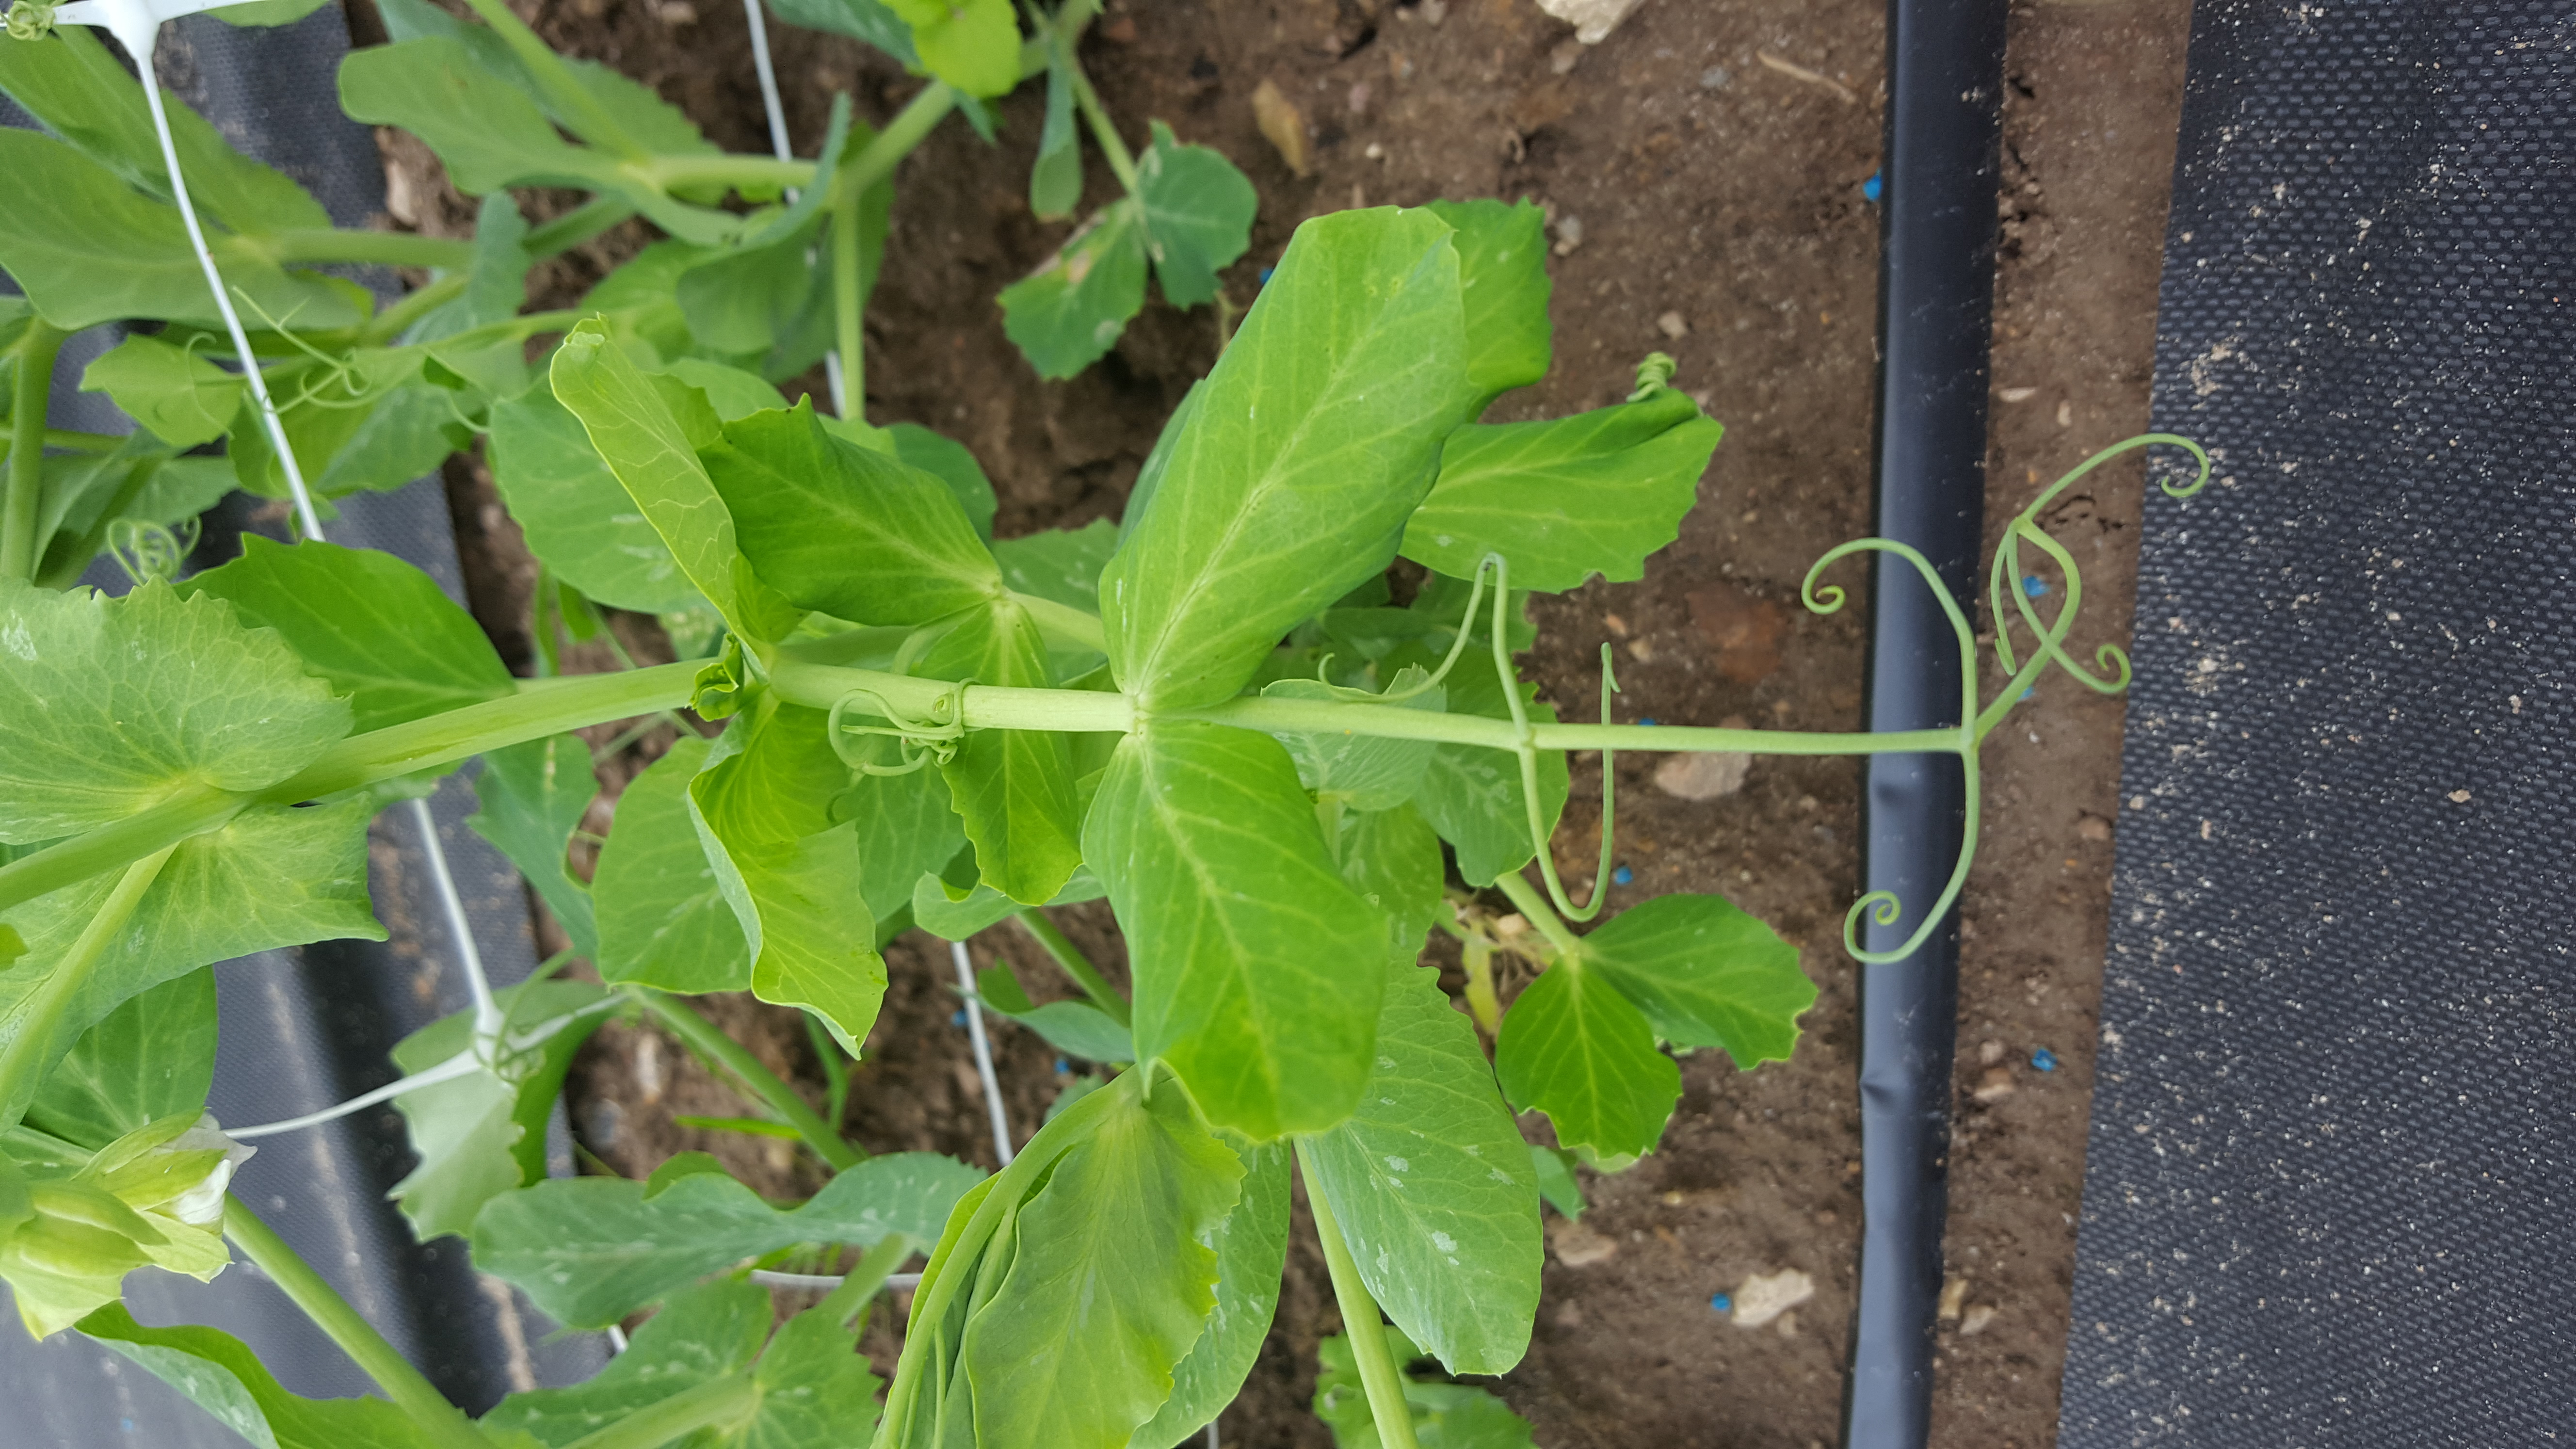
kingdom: Plantae
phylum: Tracheophyta
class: Magnoliopsida
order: Fabales
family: Fabaceae
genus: Lathyrus
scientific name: Lathyrus oleraceus
